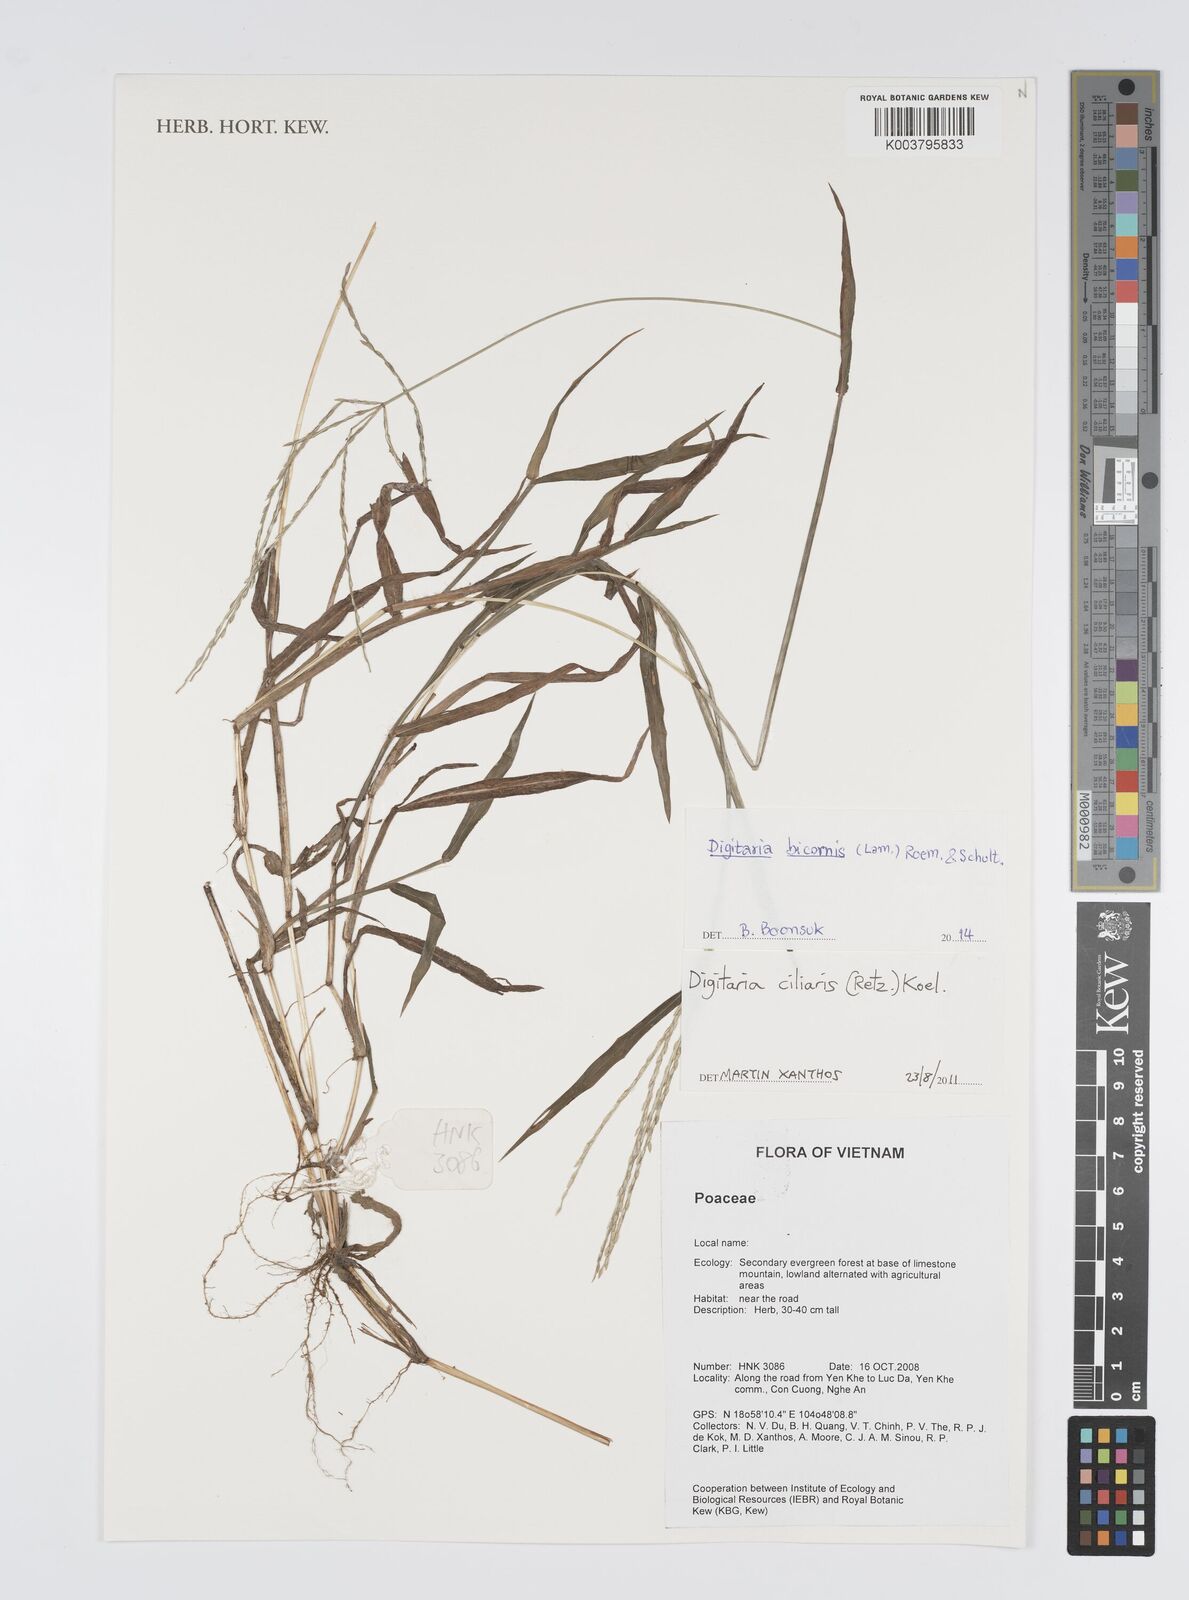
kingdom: Plantae
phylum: Tracheophyta
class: Liliopsida
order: Poales
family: Poaceae
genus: Digitaria
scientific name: Digitaria bicornis
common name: Asian crabgrass
